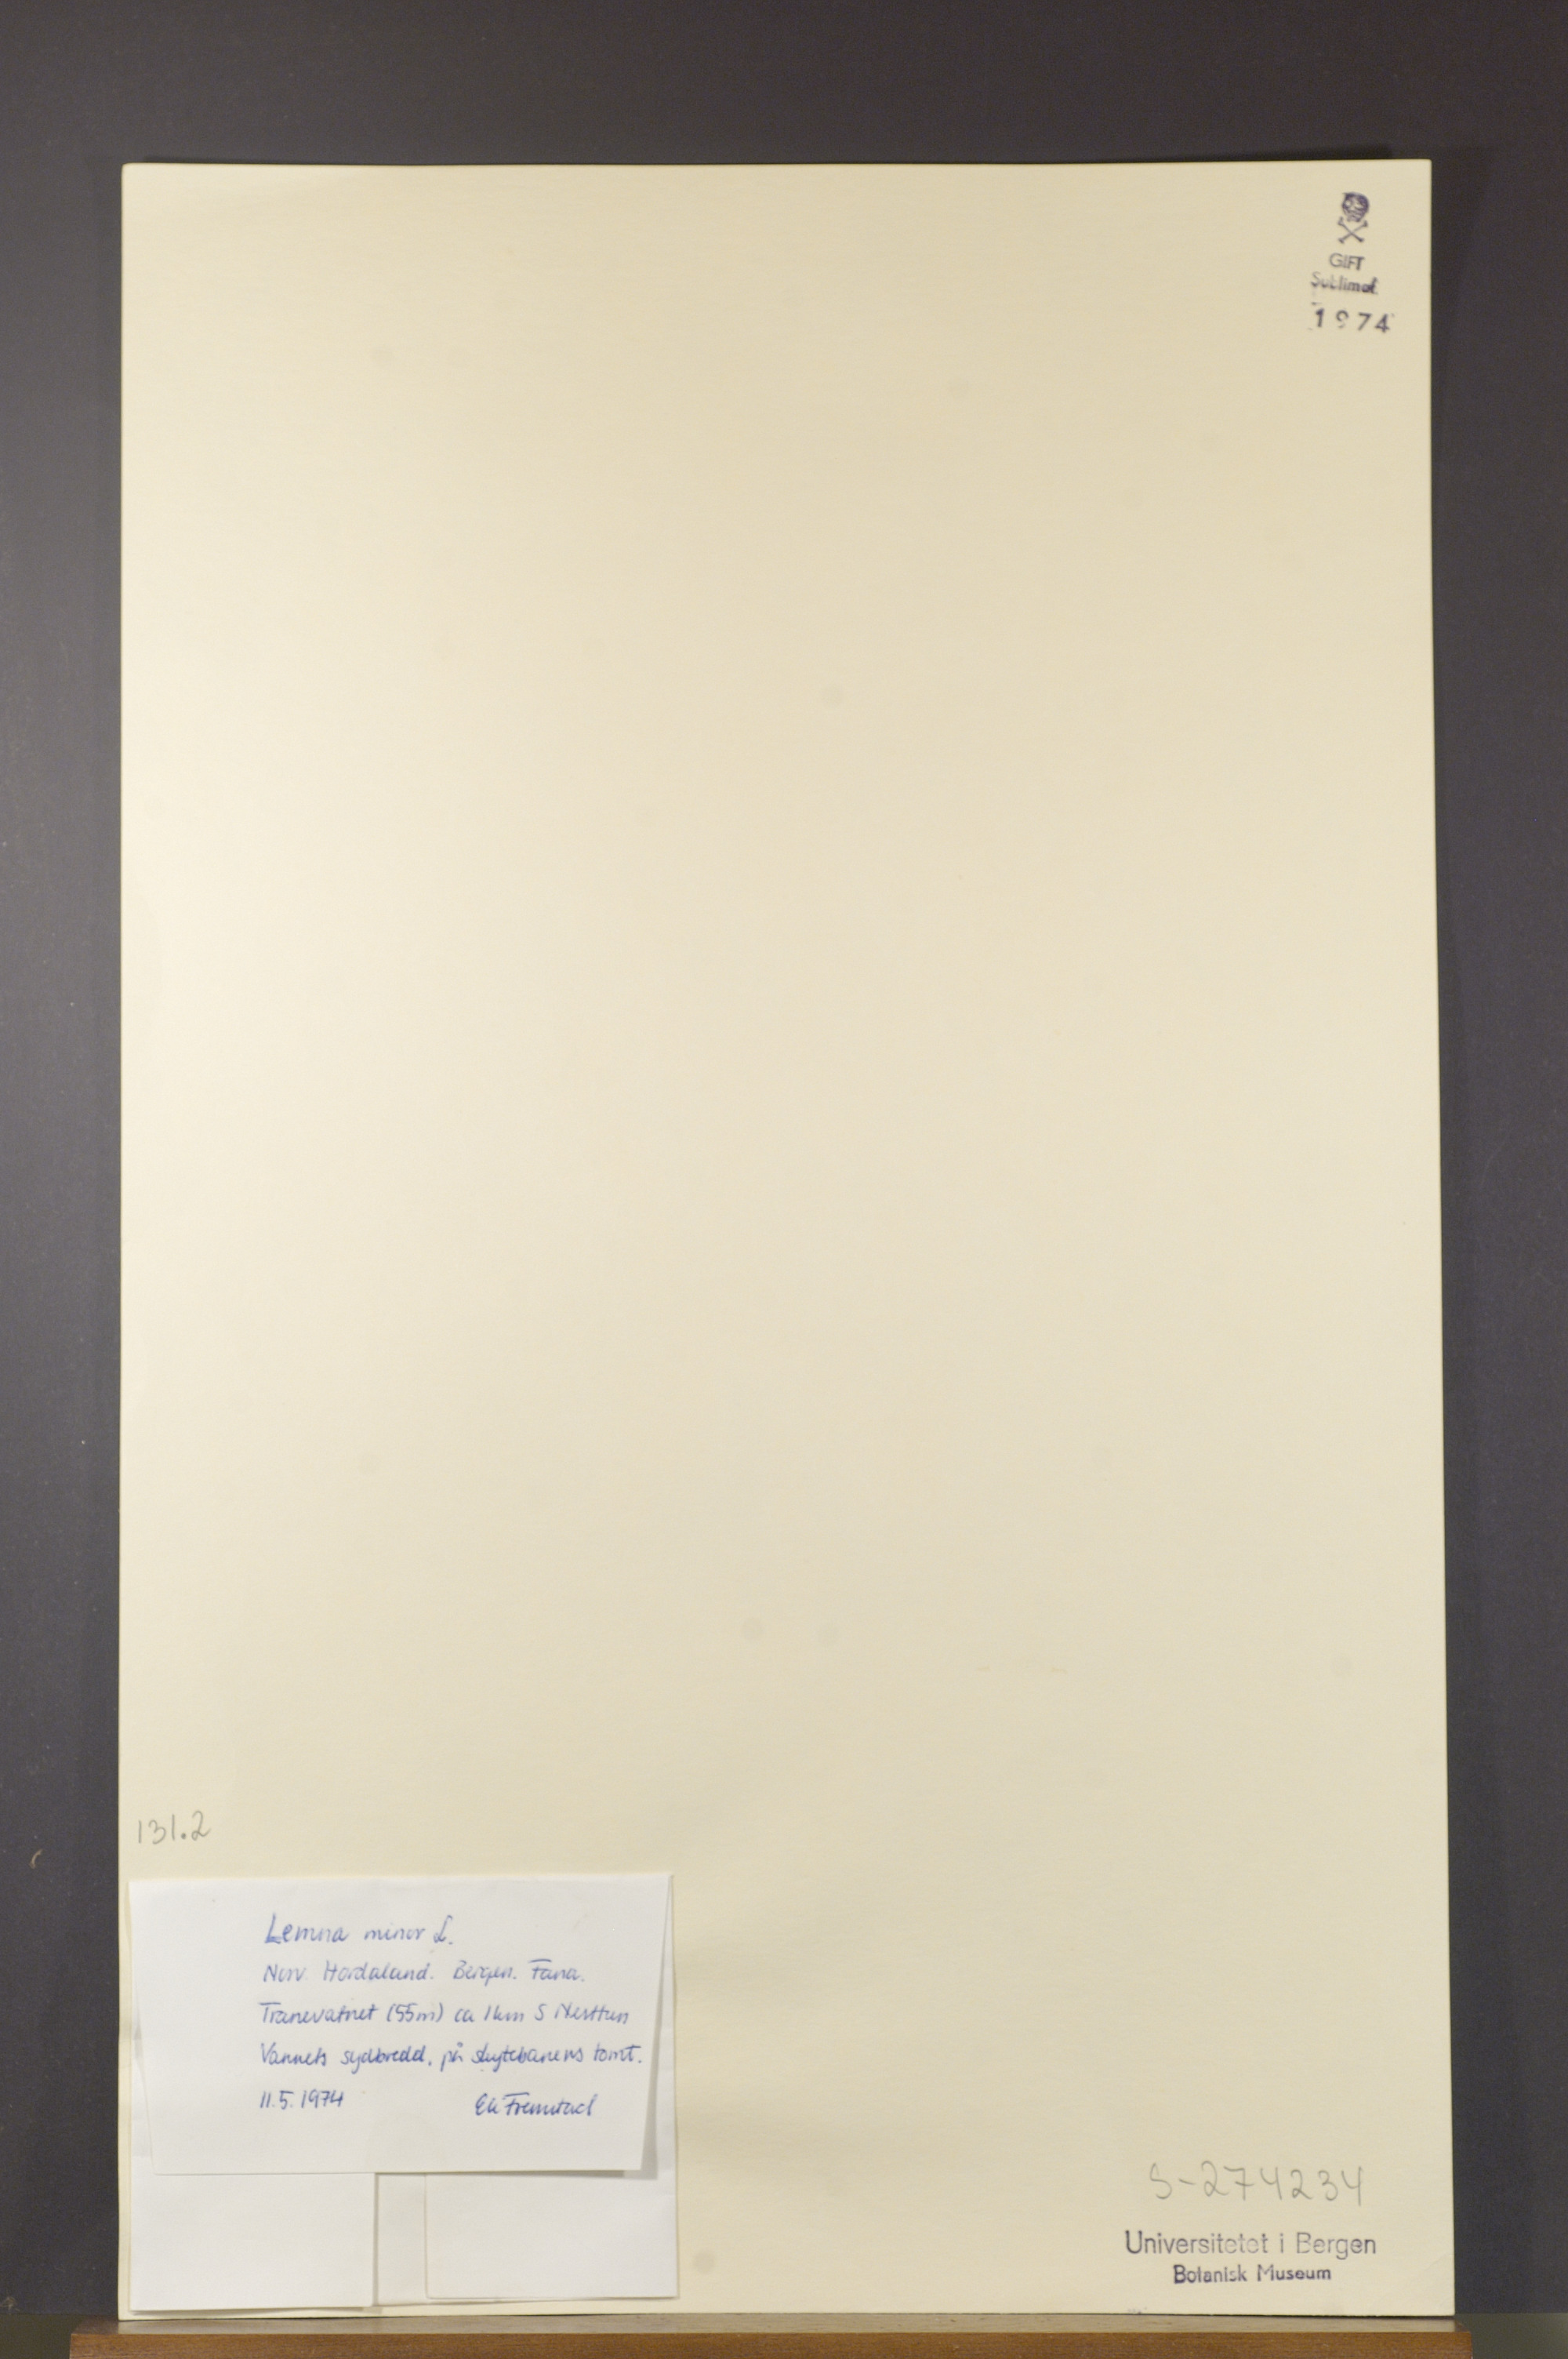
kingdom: Plantae
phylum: Tracheophyta
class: Liliopsida
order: Alismatales
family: Araceae
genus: Lemna
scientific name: Lemna minor
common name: Common duckweed
